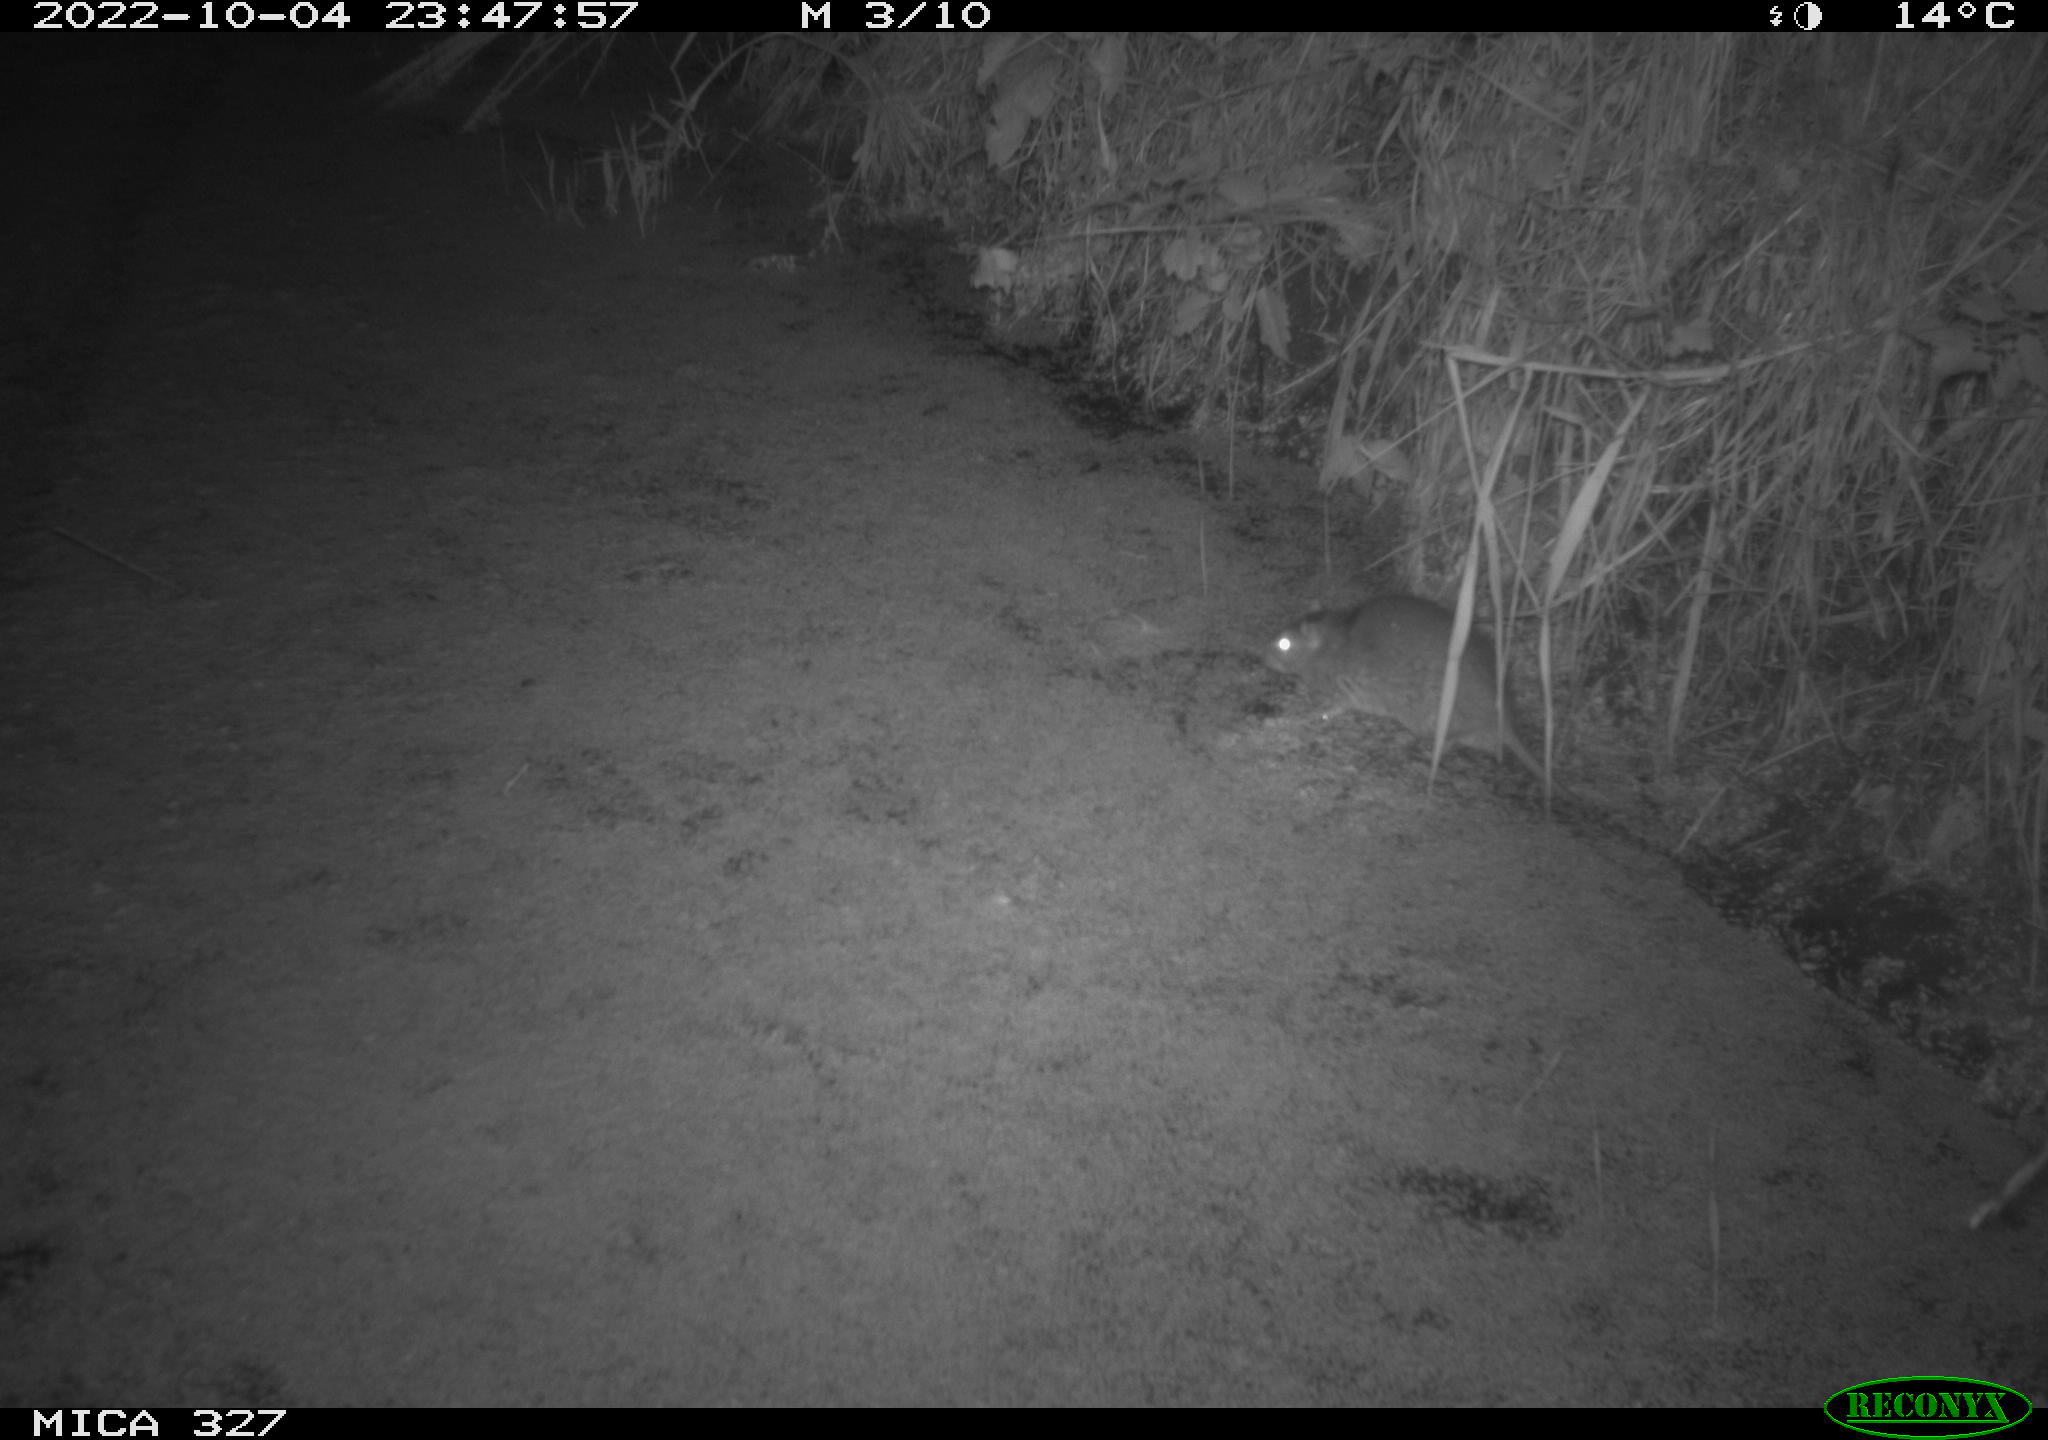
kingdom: Animalia
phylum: Chordata
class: Mammalia
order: Rodentia
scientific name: Rodentia
